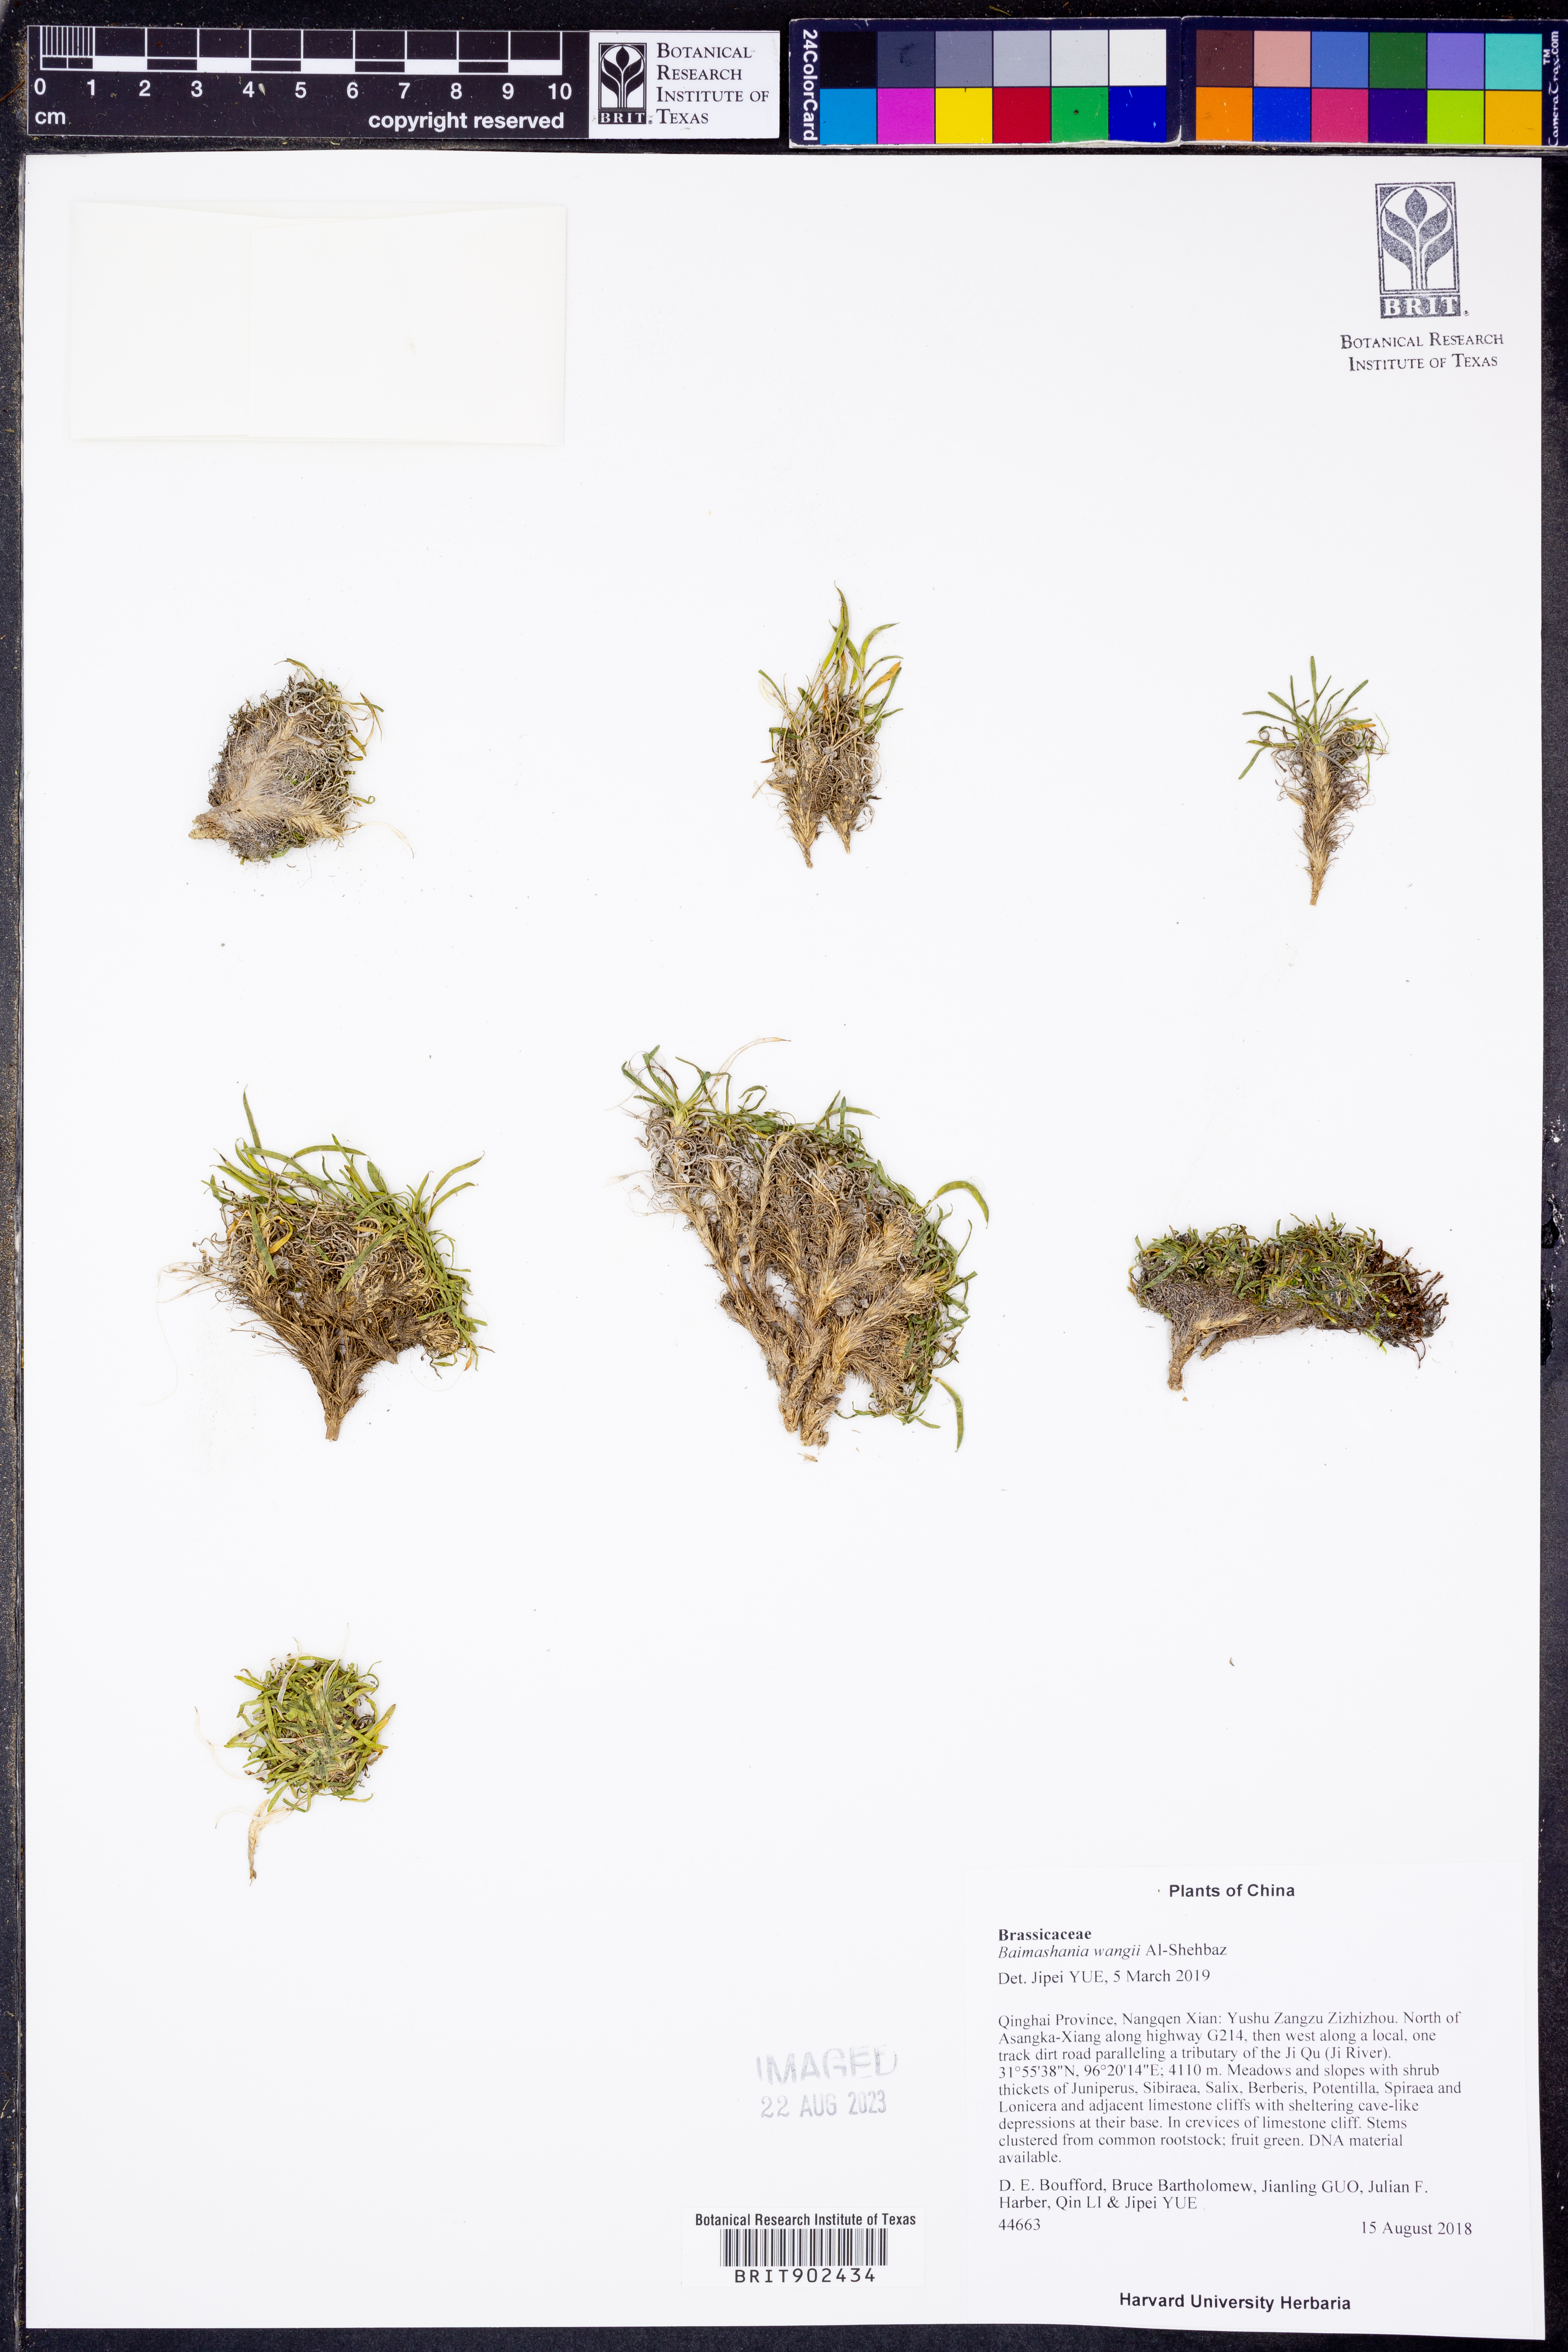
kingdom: Plantae
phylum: Tracheophyta
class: Magnoliopsida
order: Brassicales
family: Brassicaceae
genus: Baimashania
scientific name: Baimashania wangii
